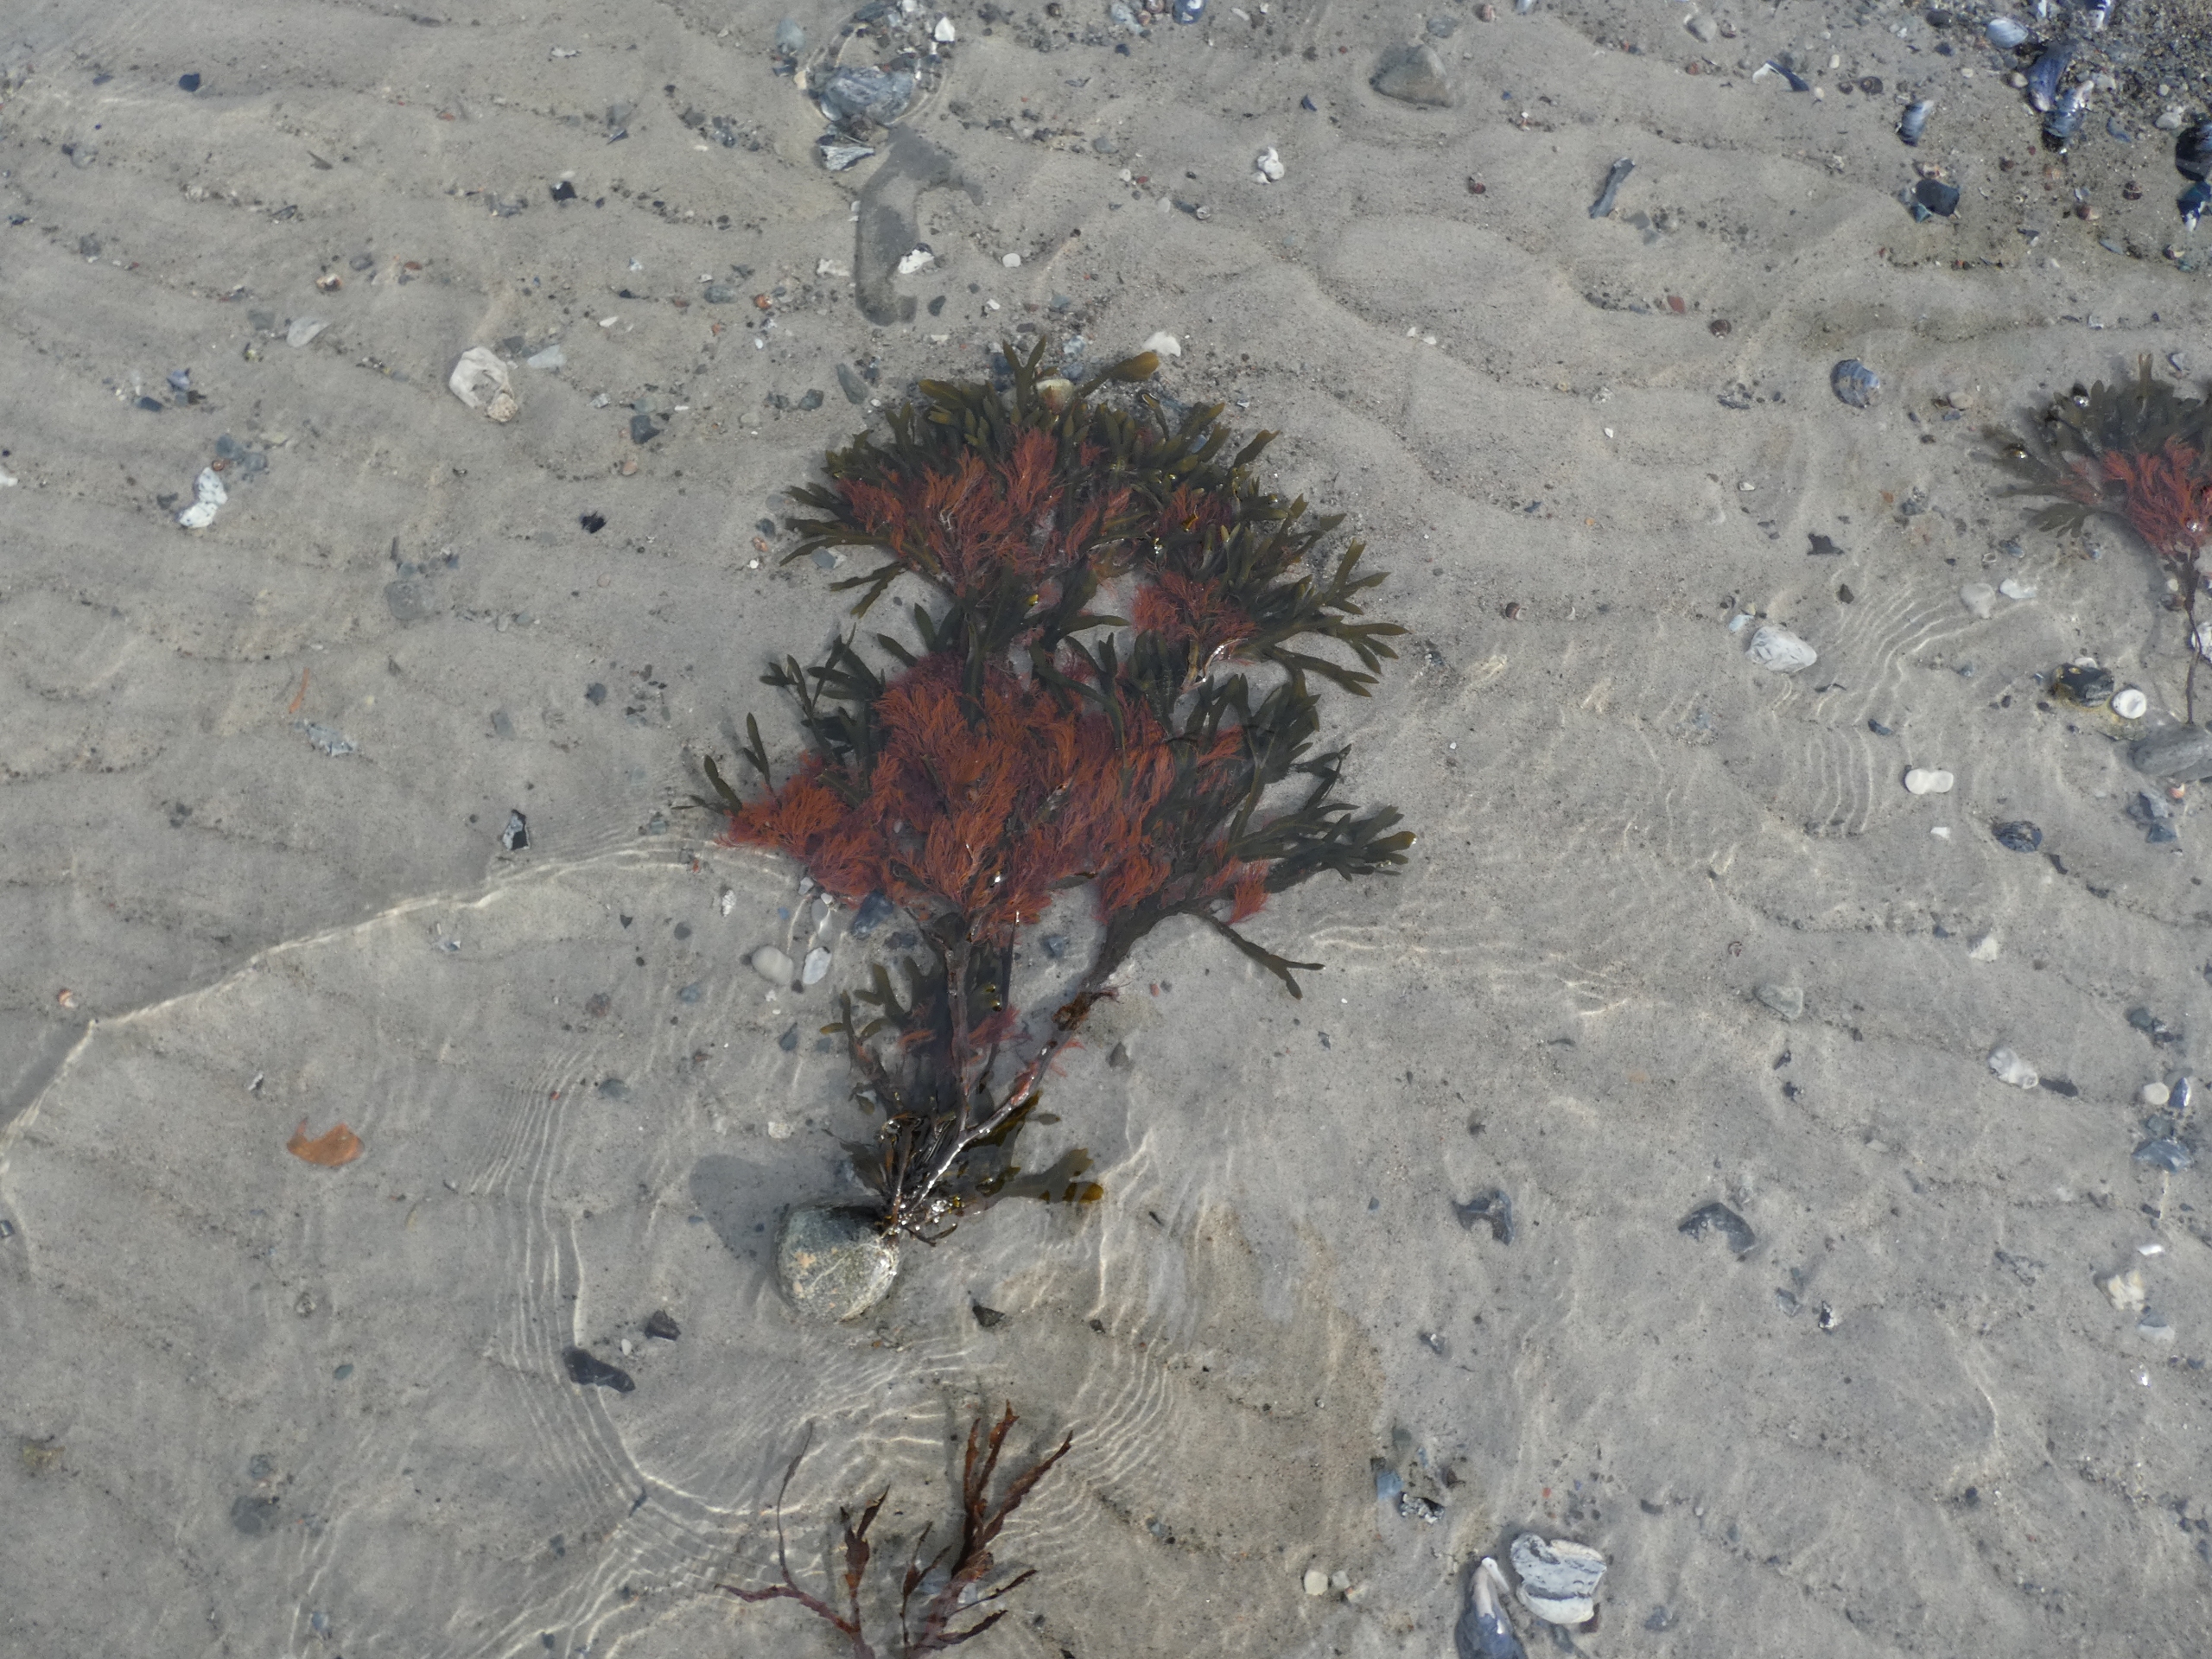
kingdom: Plantae
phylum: Rhodophyta
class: Florideophyceae
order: Ceramiales
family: Ceramiaceae
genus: Ceramium
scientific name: Ceramium
